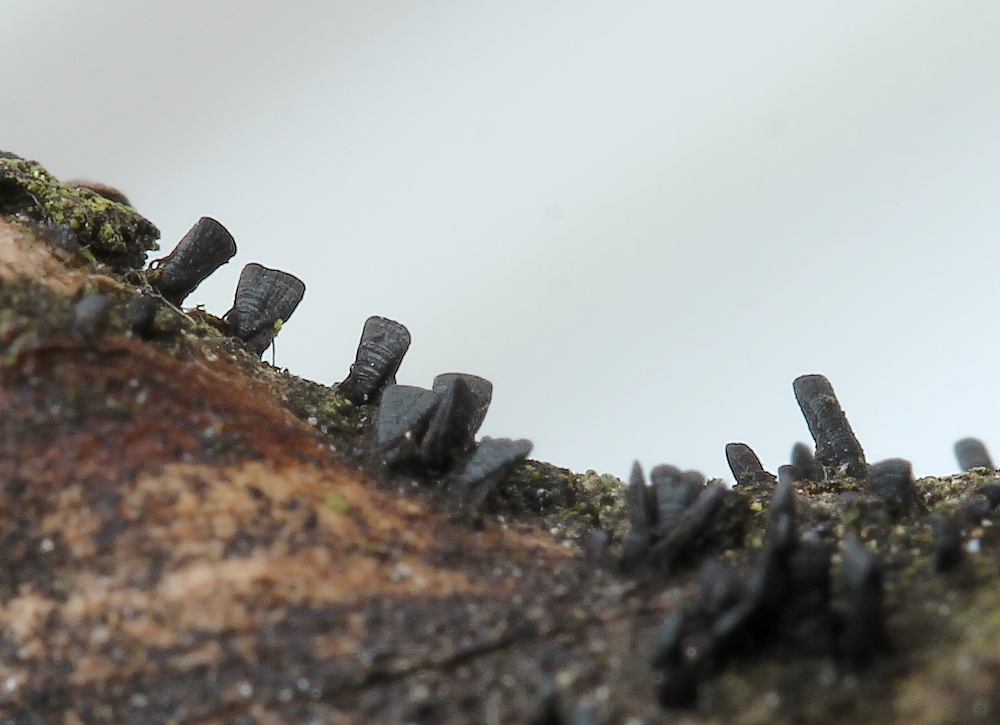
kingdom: Fungi
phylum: Ascomycota
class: Eurotiomycetes
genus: Glyphium
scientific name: Glyphium elatum
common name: kuløkse
